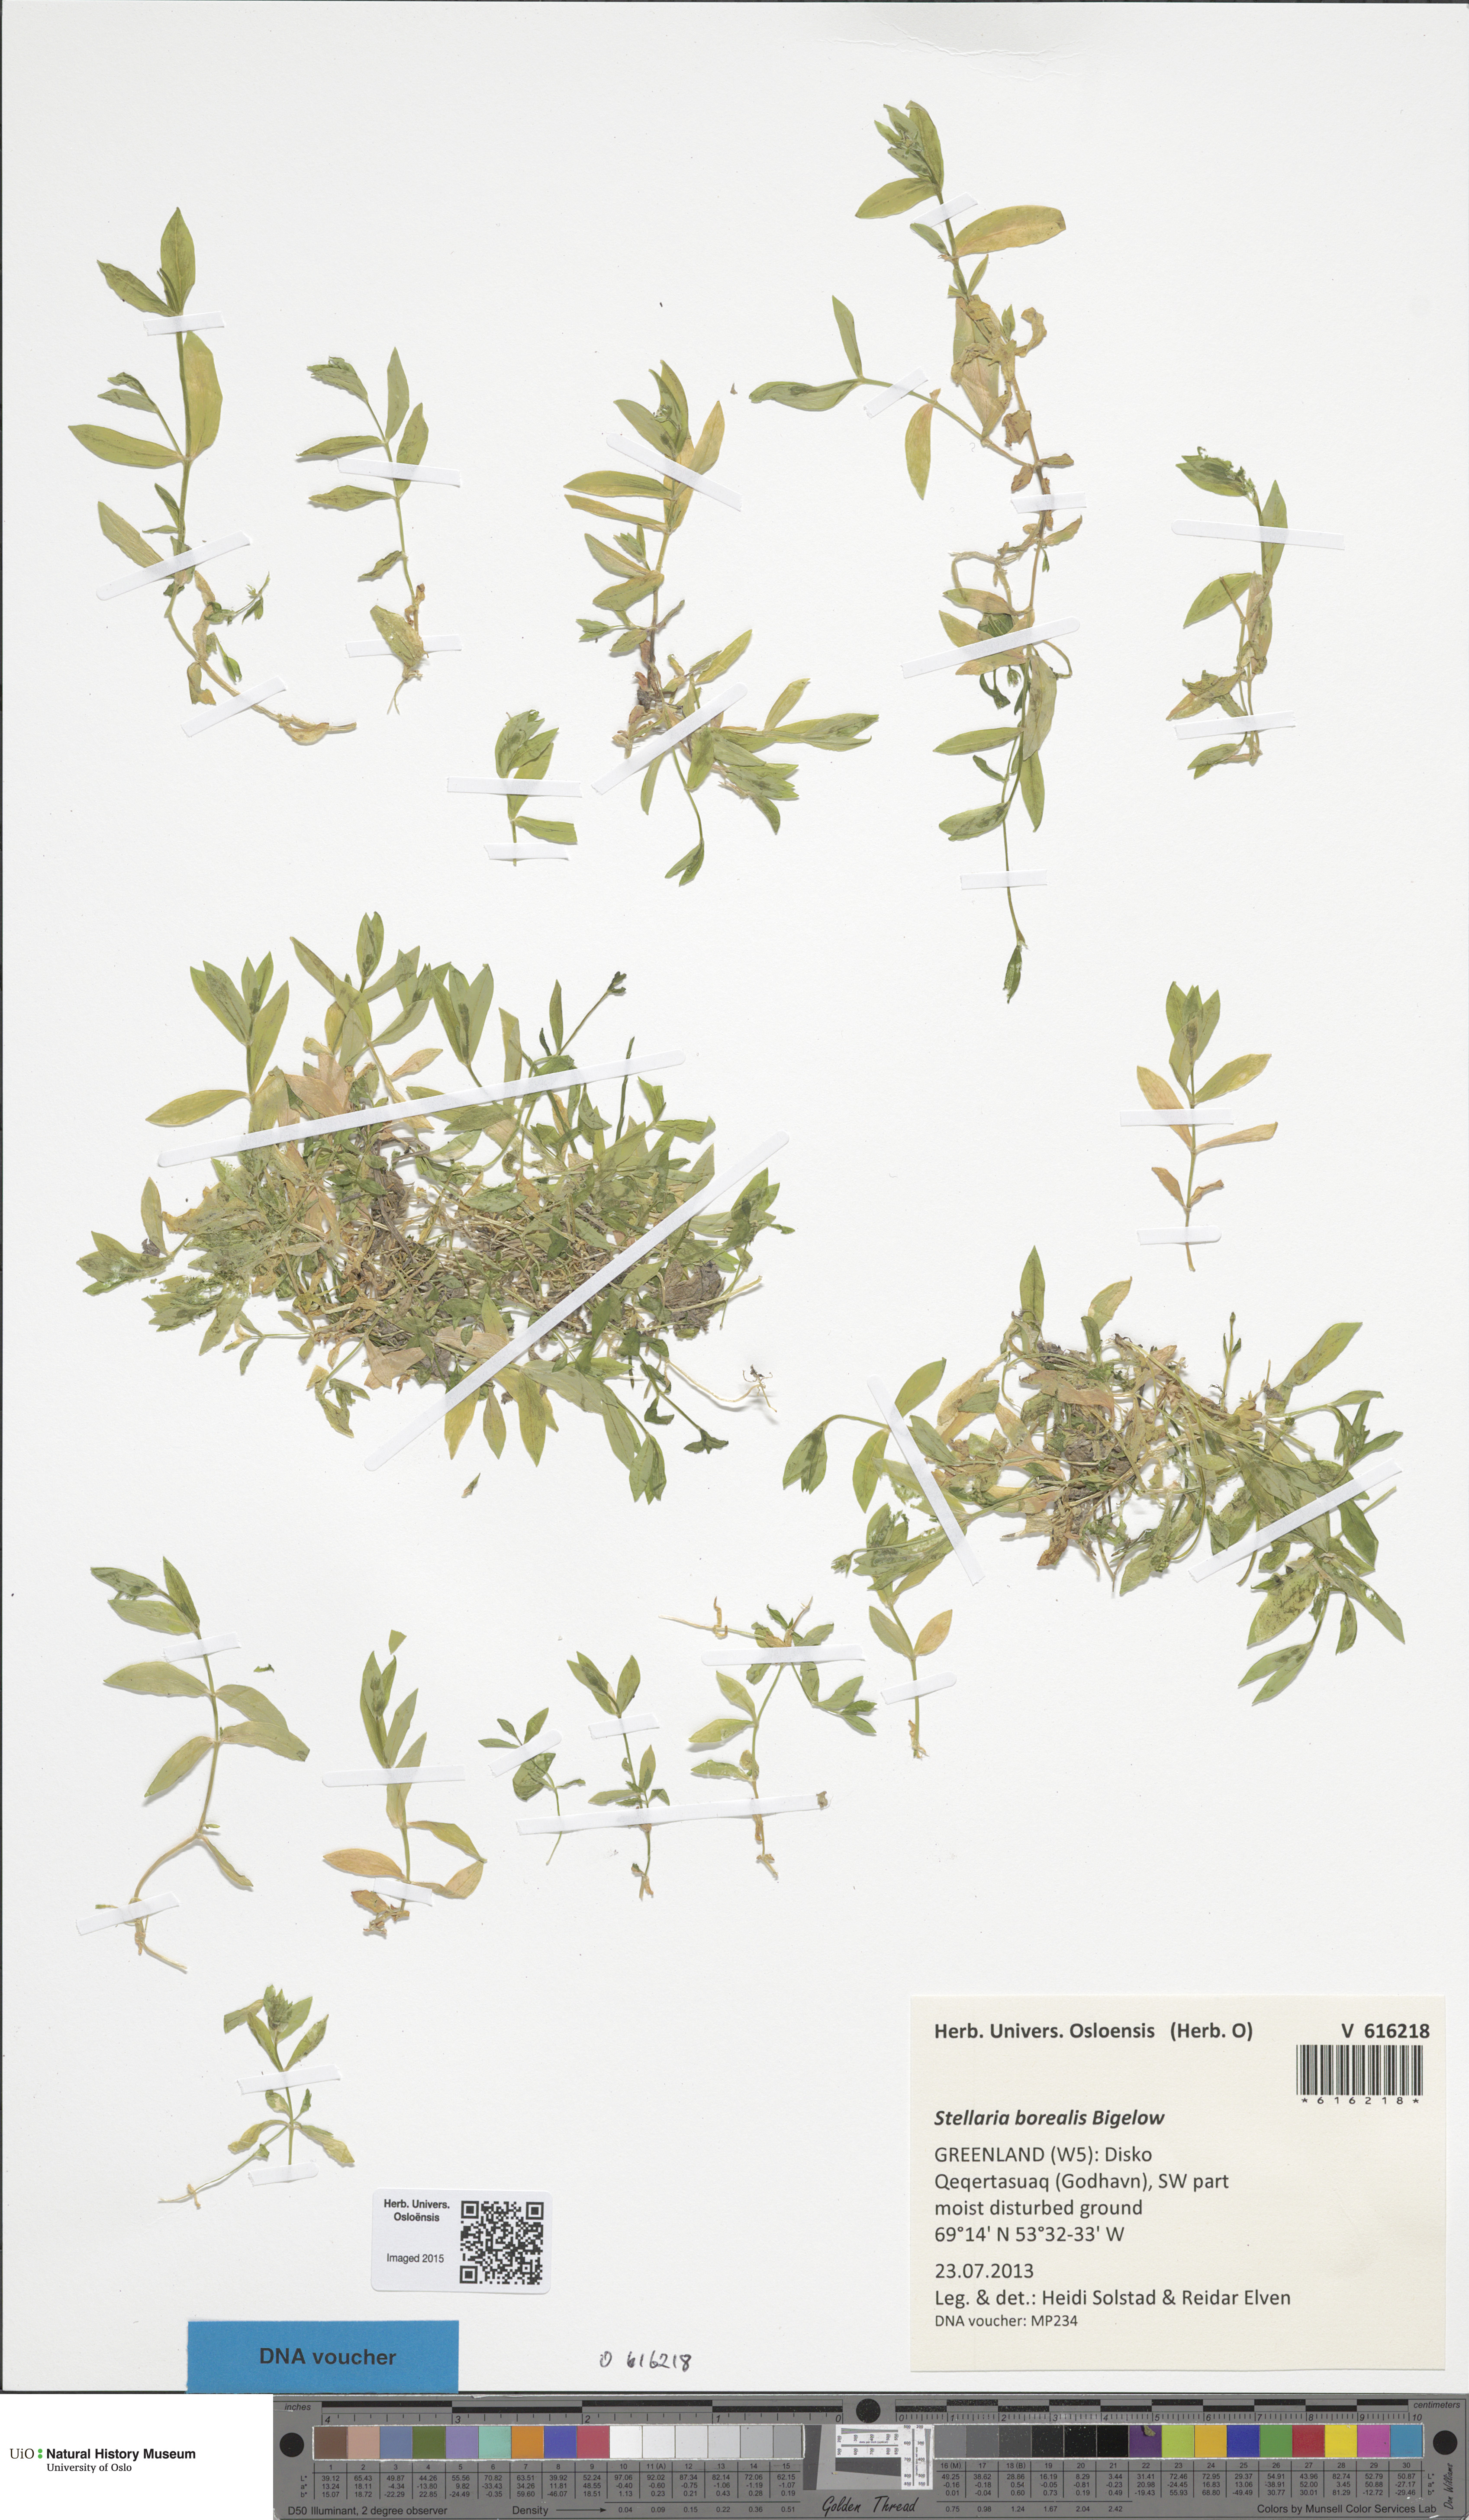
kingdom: Plantae
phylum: Tracheophyta
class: Magnoliopsida
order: Caryophyllales
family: Caryophyllaceae
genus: Stellaria
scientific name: Stellaria borealis
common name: Boreal starwort
